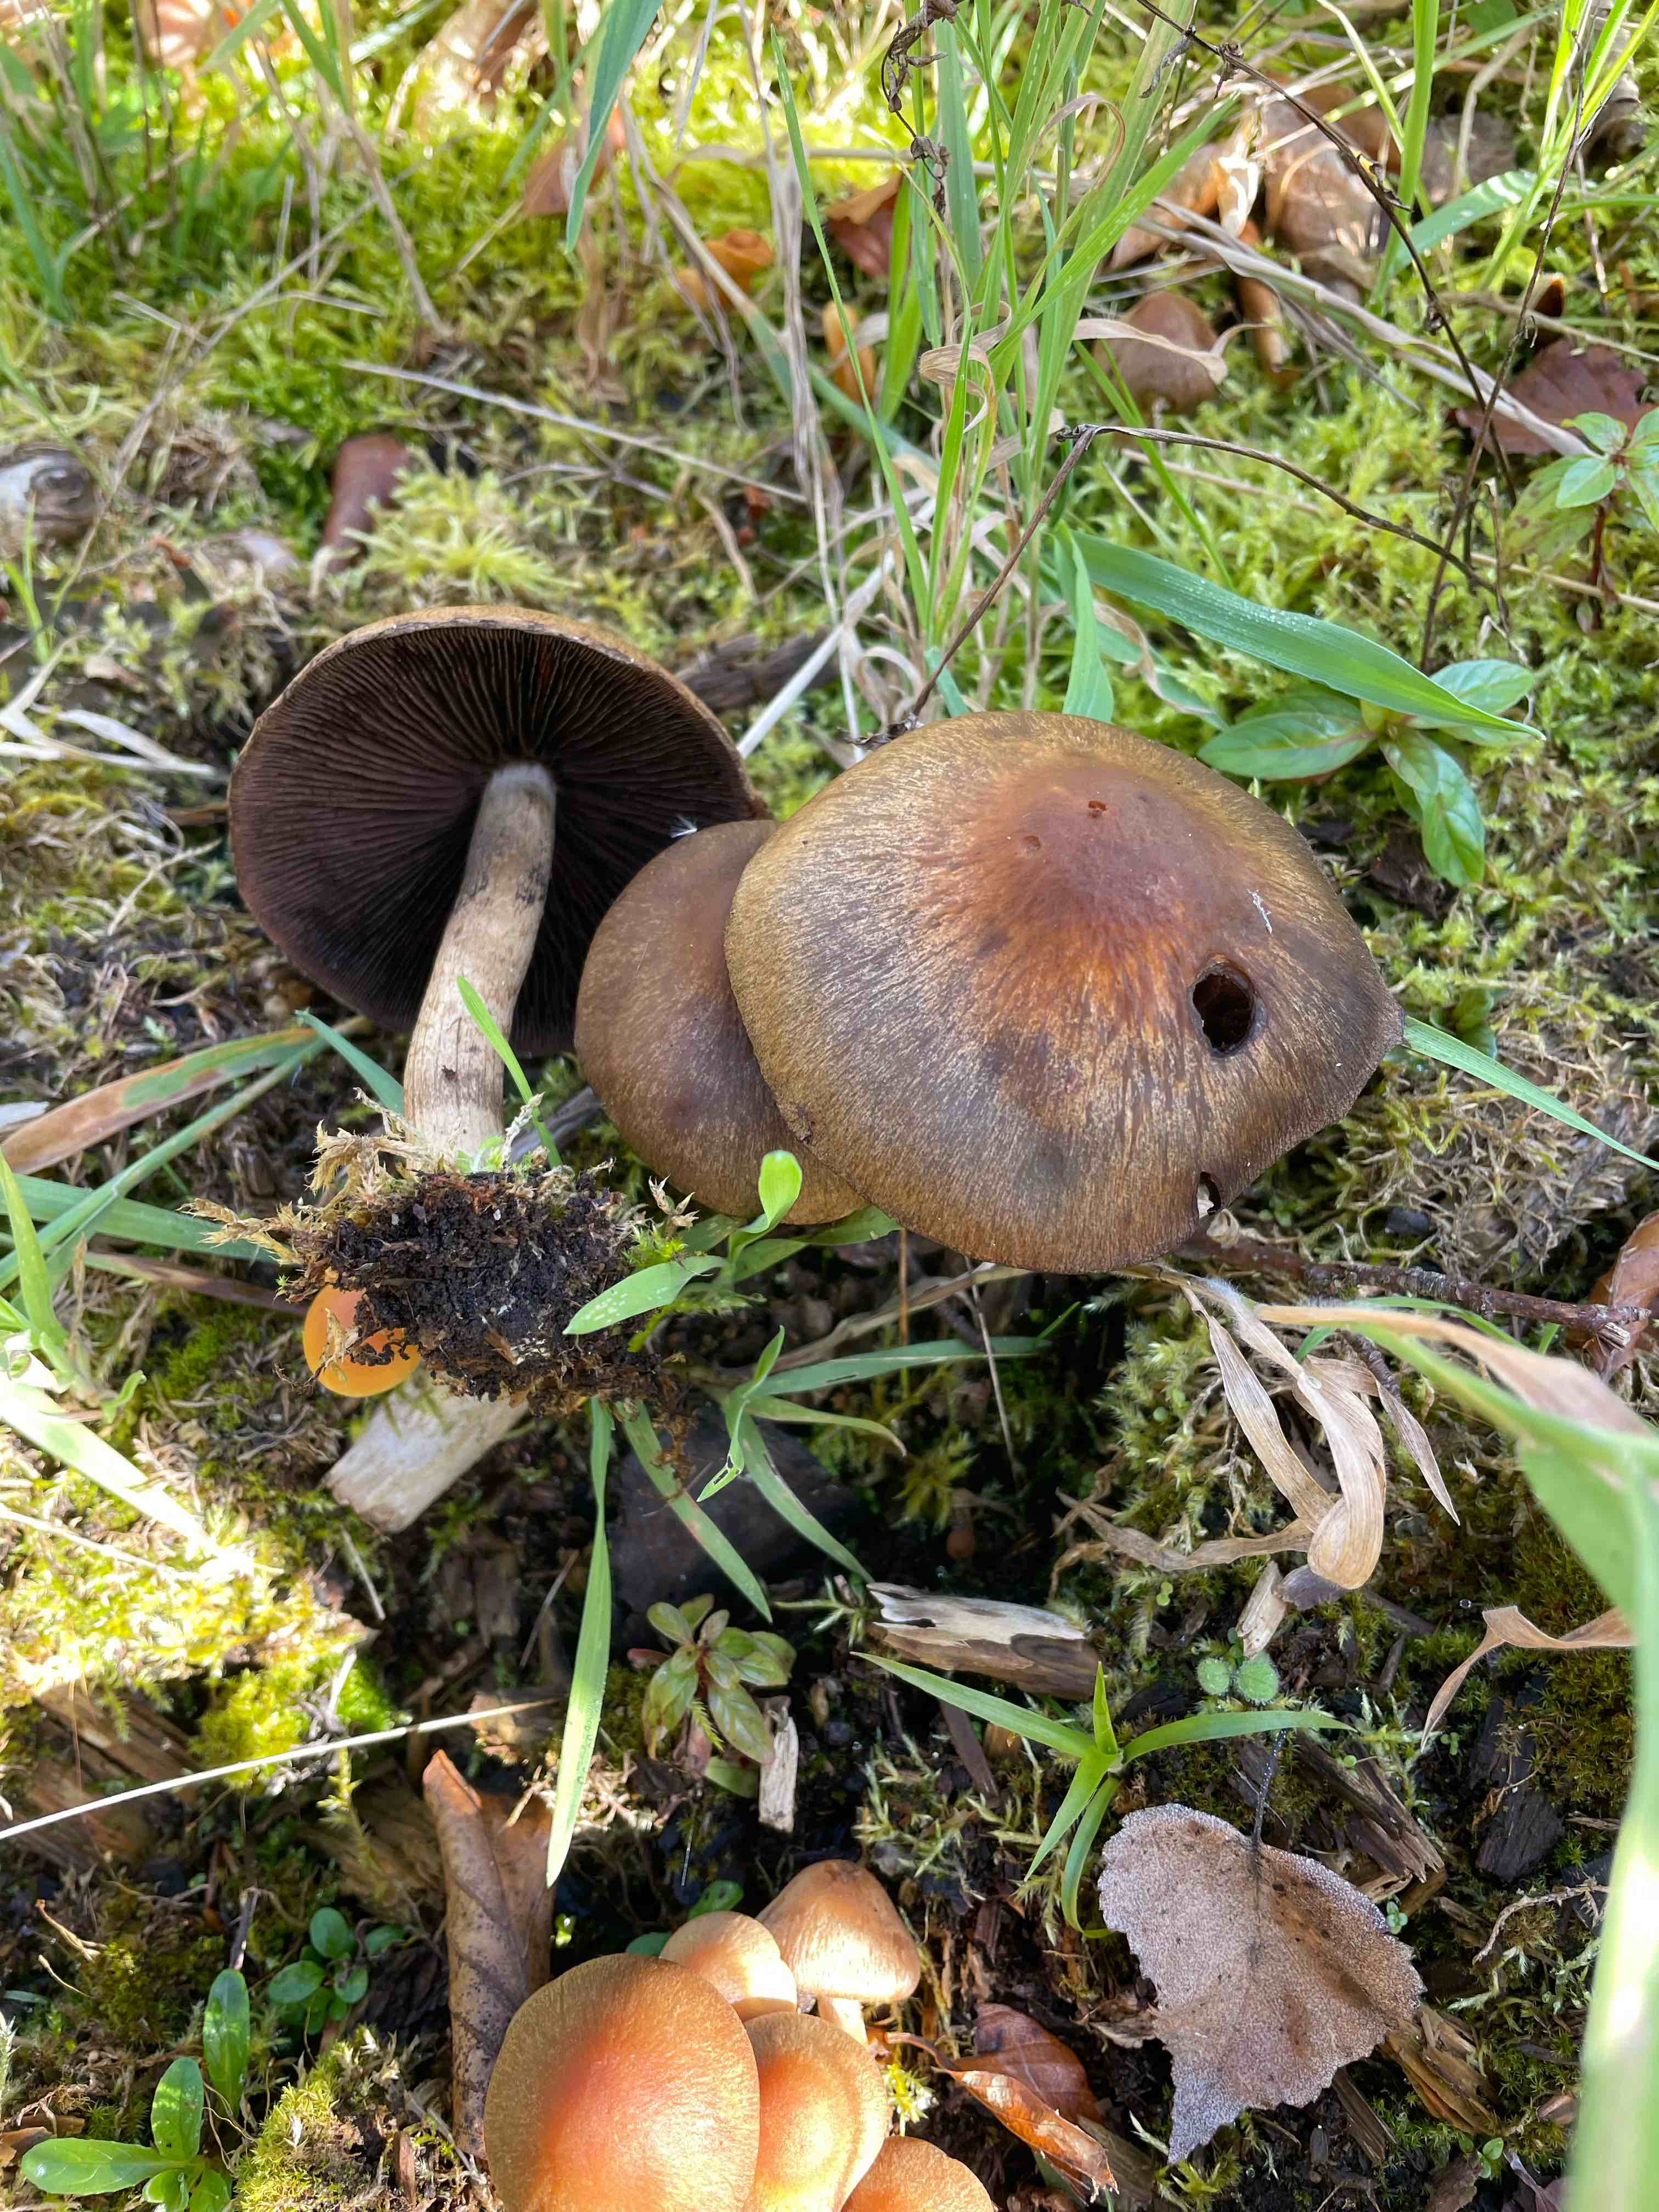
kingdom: Fungi
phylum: Basidiomycota
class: Agaricomycetes
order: Agaricales
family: Psathyrellaceae
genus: Lacrymaria
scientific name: Lacrymaria lacrymabunda
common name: grædende mørkhat
